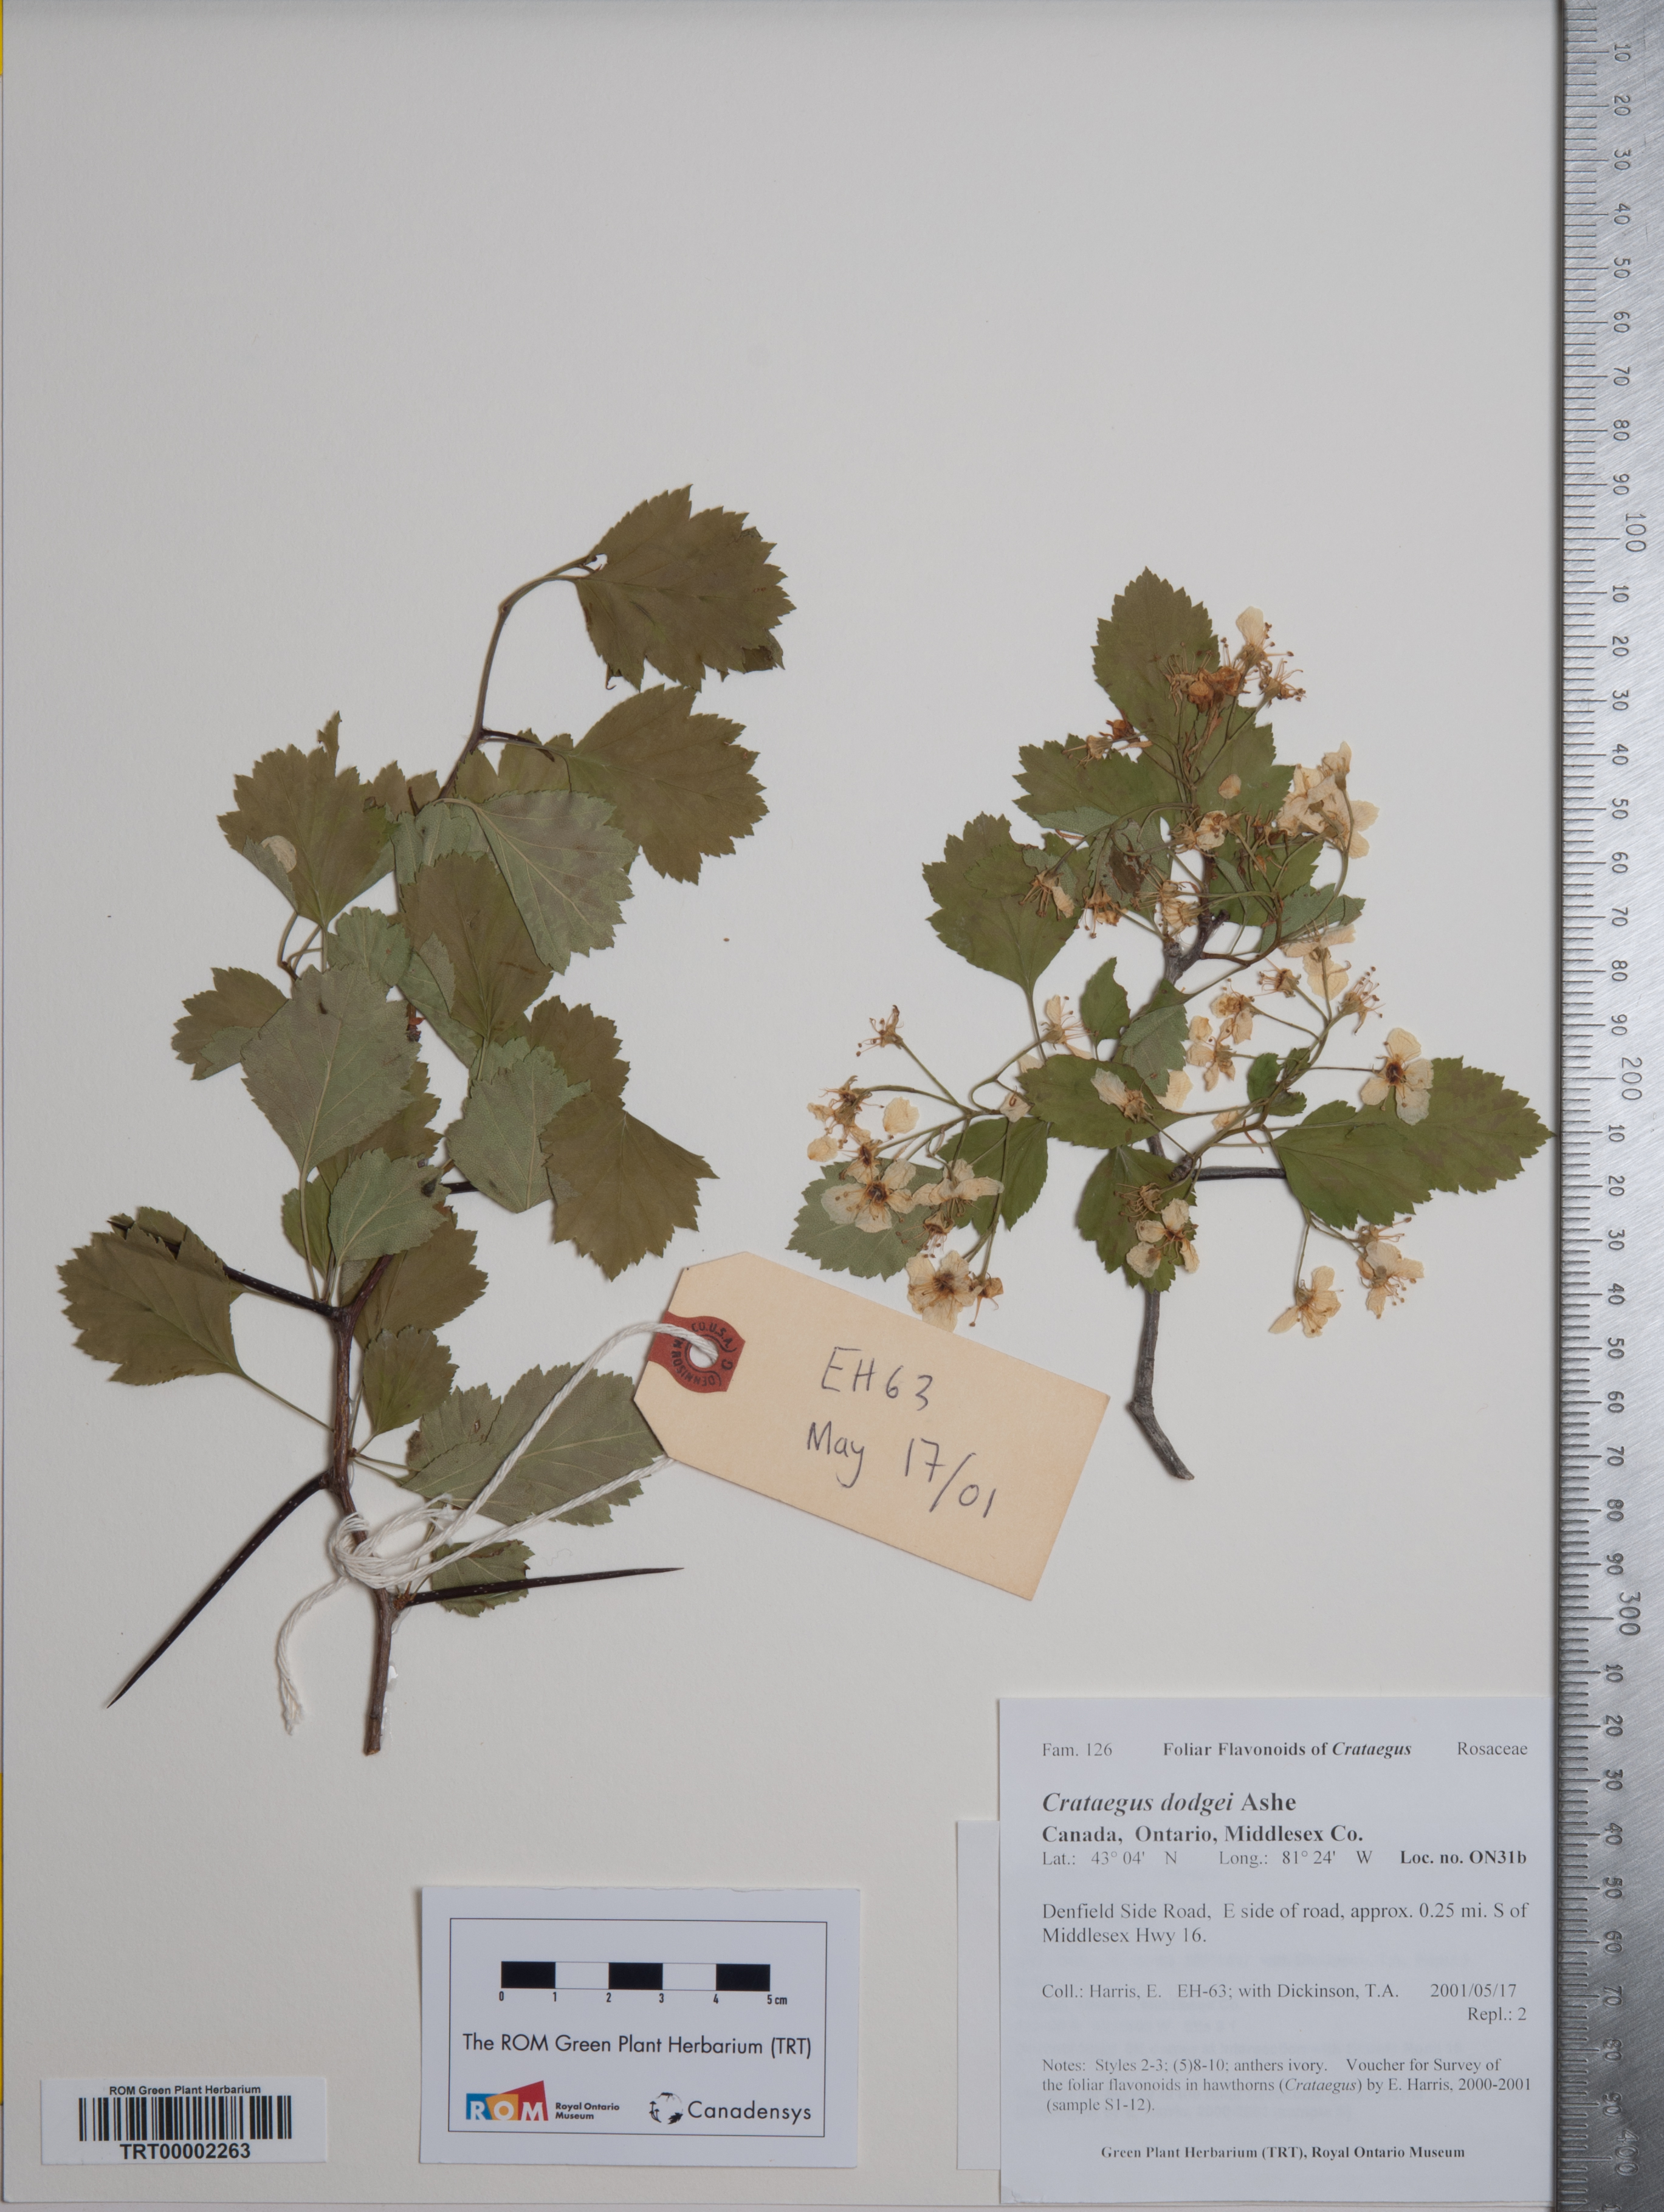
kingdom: Plantae
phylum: Tracheophyta
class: Magnoliopsida
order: Rosales
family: Rosaceae
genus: Crataegus
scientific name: Crataegus dodgei
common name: Dodge's hawthorn
